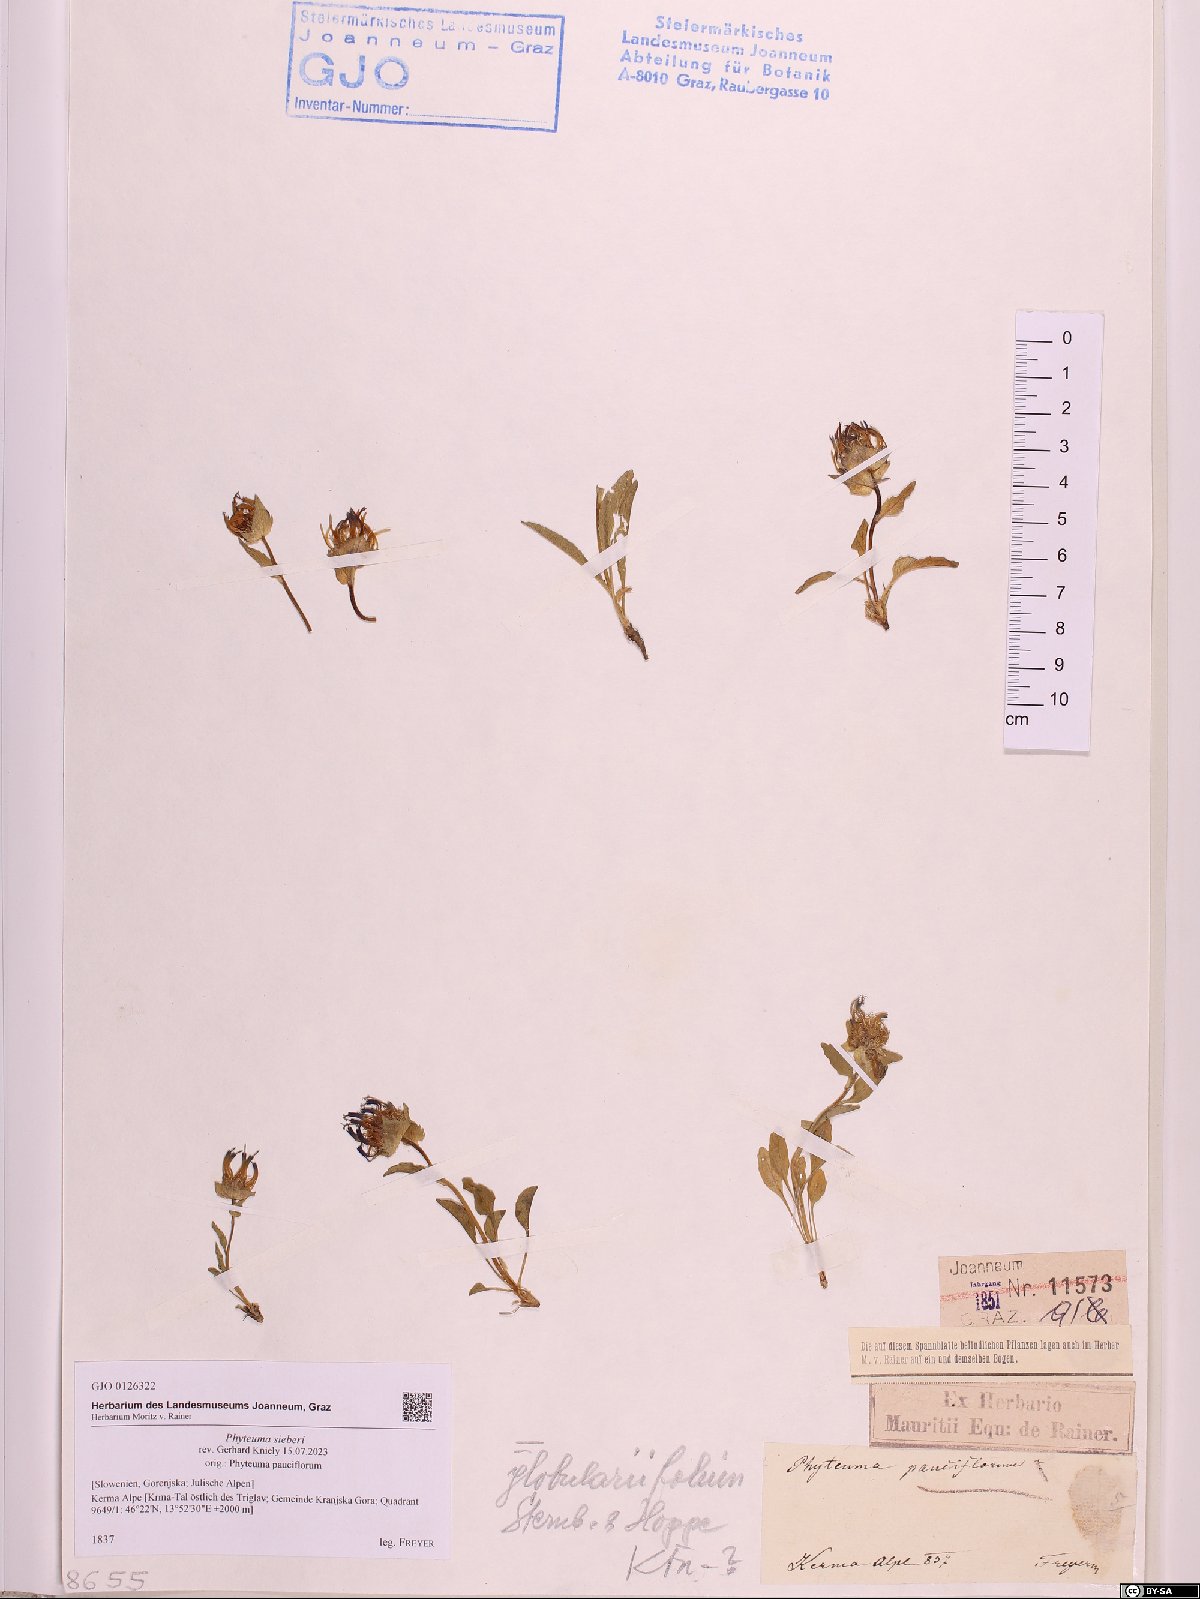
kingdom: Plantae
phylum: Tracheophyta
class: Magnoliopsida
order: Asterales
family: Campanulaceae
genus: Phyteuma
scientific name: Phyteuma sieberi
